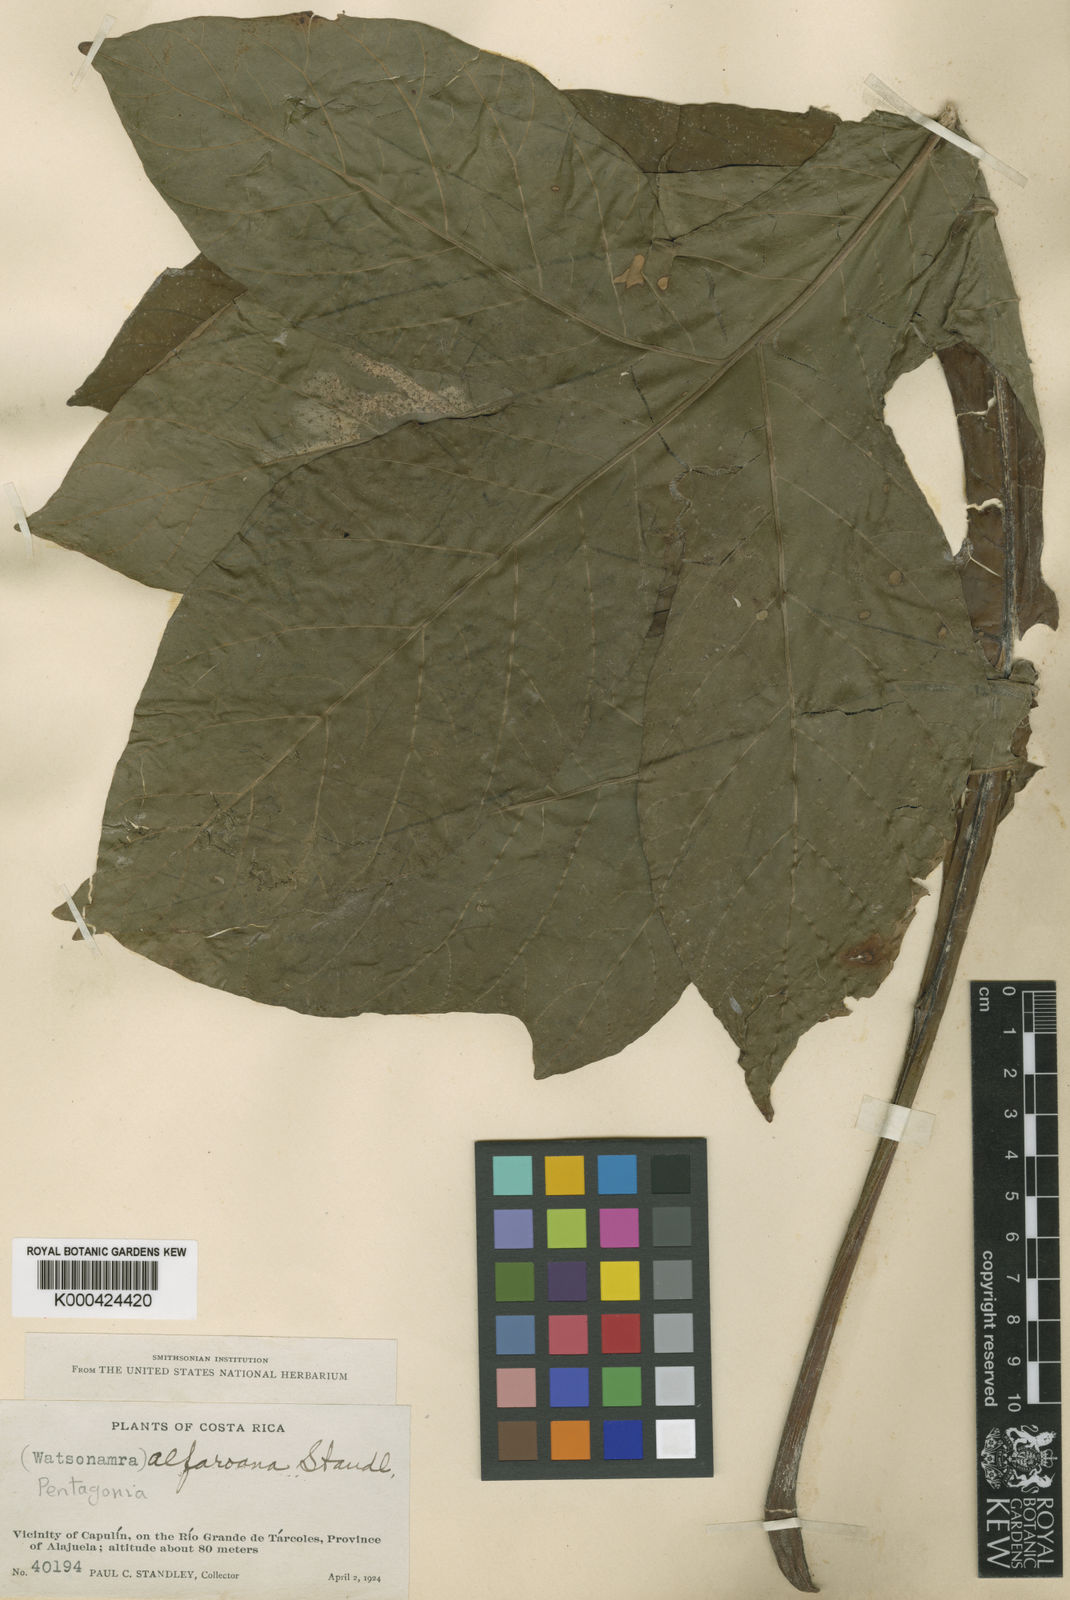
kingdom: Plantae
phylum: Tracheophyta
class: Magnoliopsida
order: Gentianales
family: Rubiaceae
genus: Pentagonia
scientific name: Pentagonia tinajita
